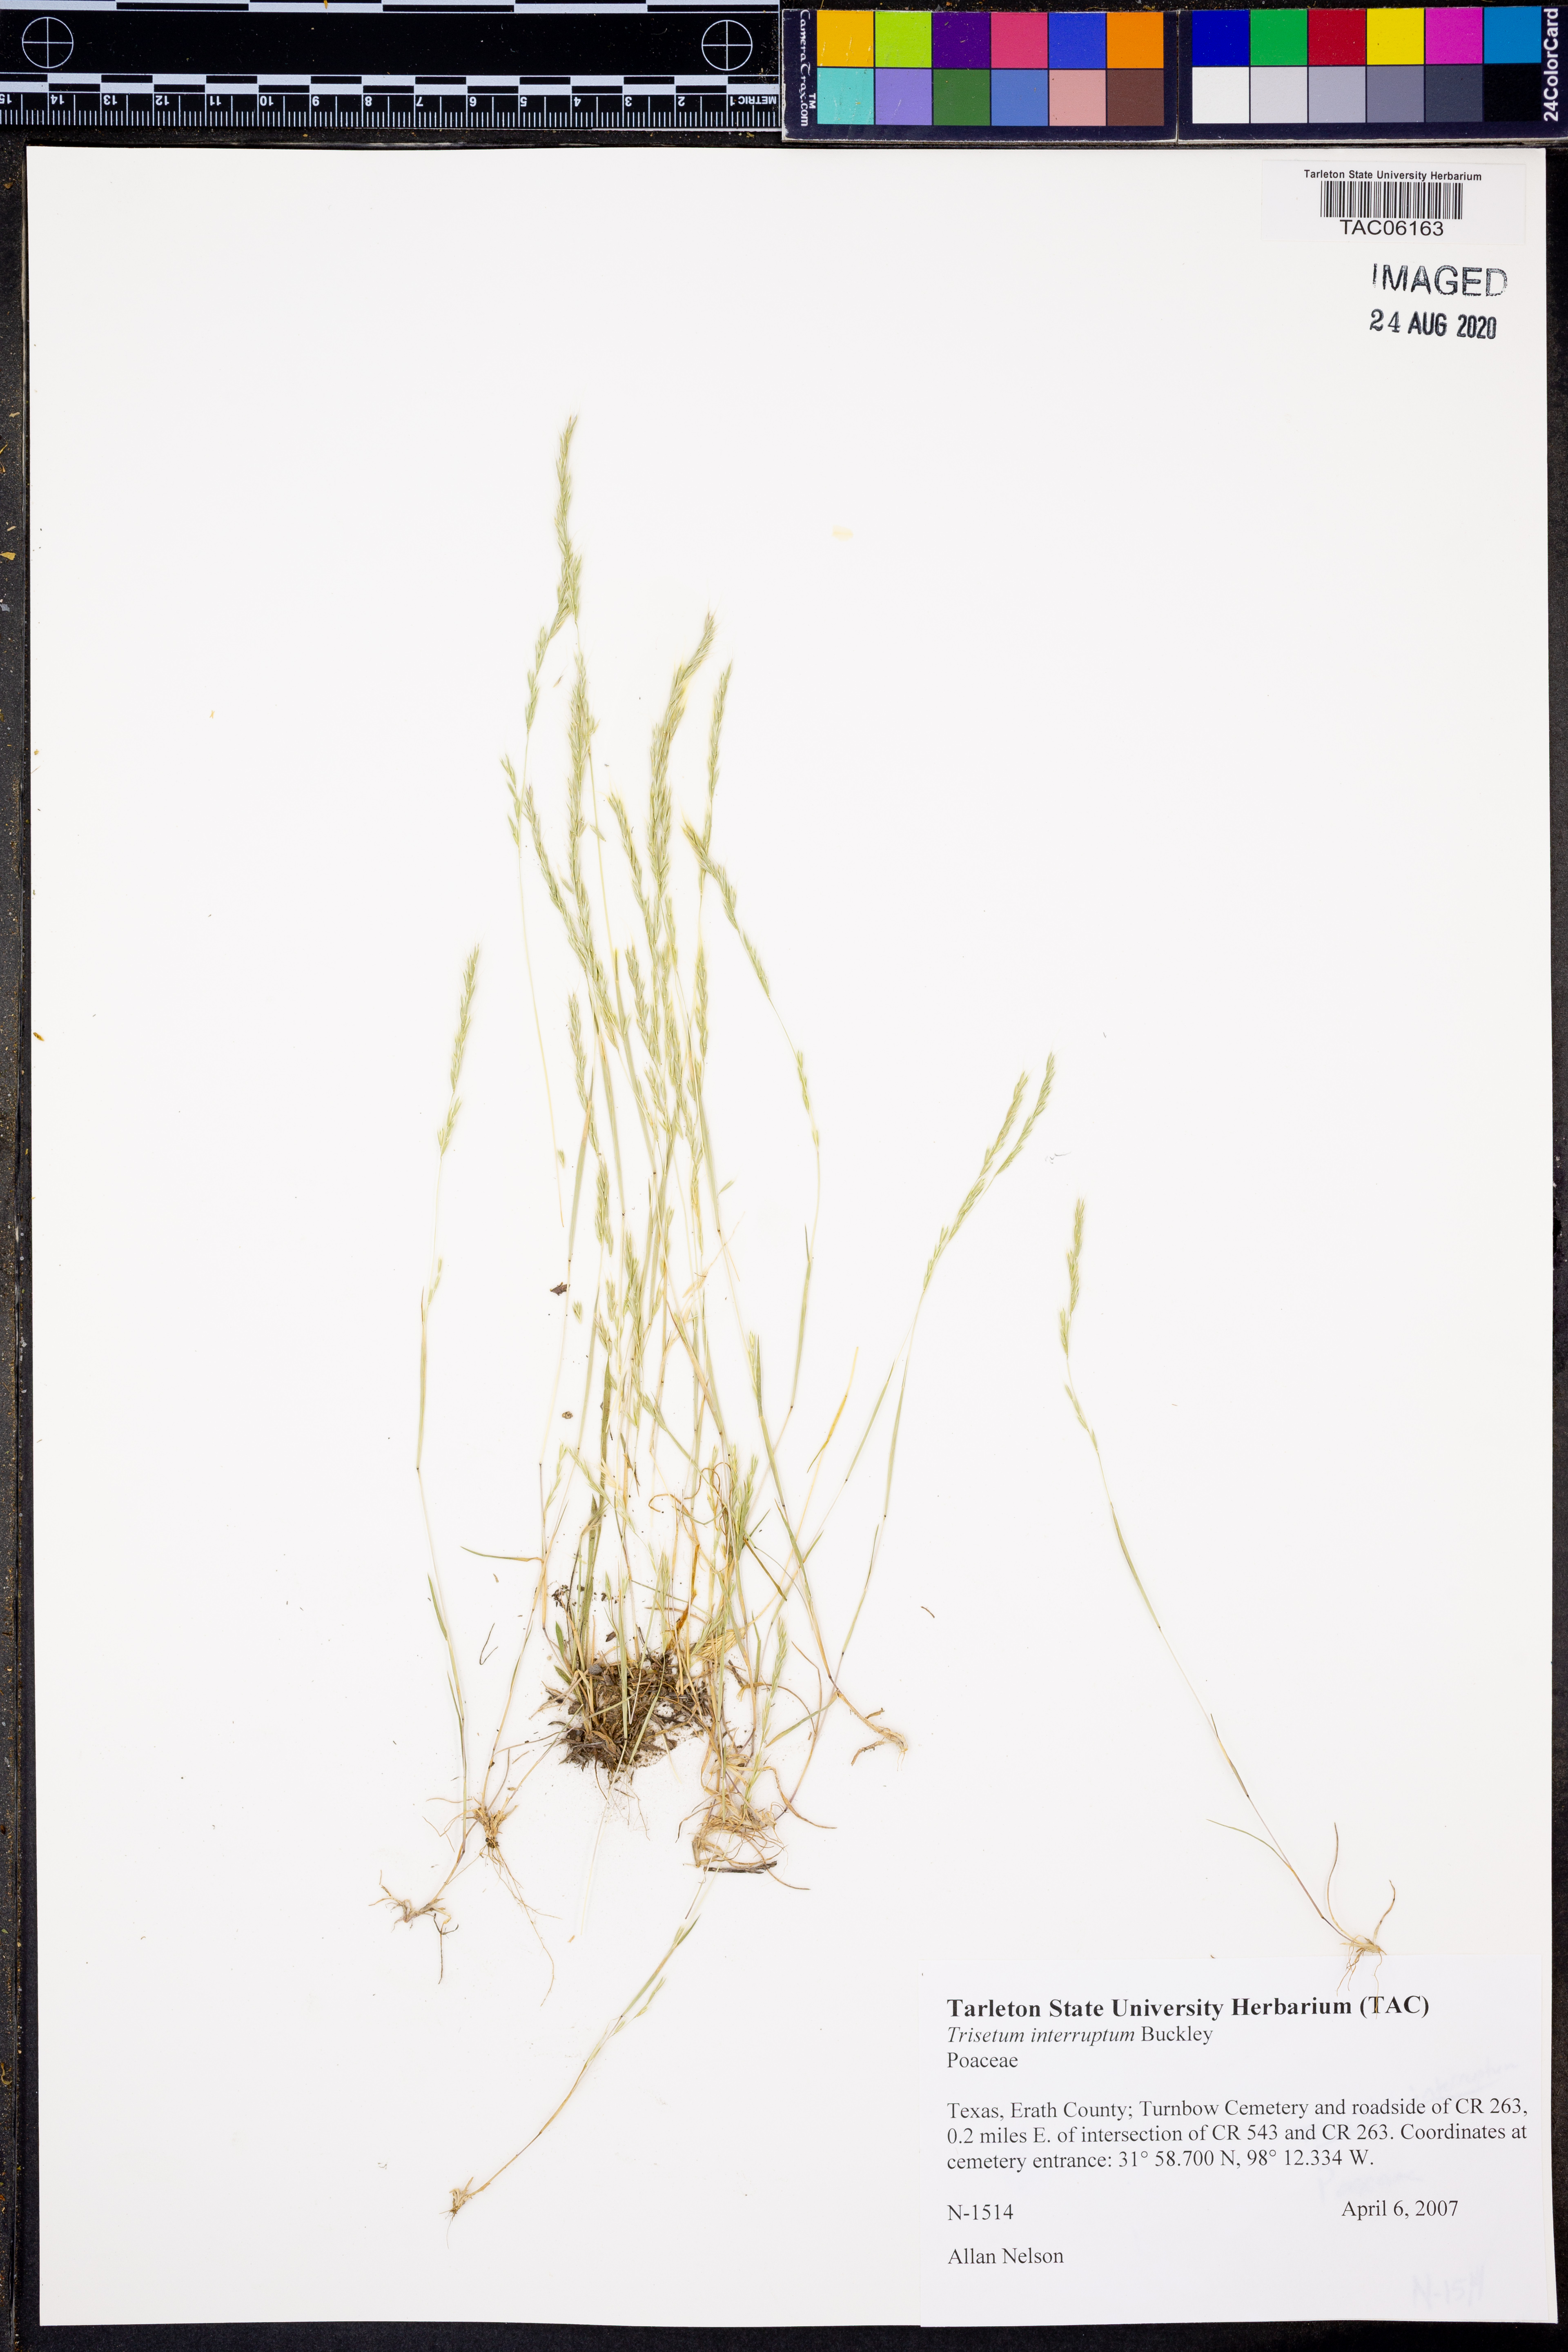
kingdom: Plantae
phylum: Tracheophyta
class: Liliopsida
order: Poales
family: Poaceae
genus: Sphenopholis
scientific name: Sphenopholis interrupta
